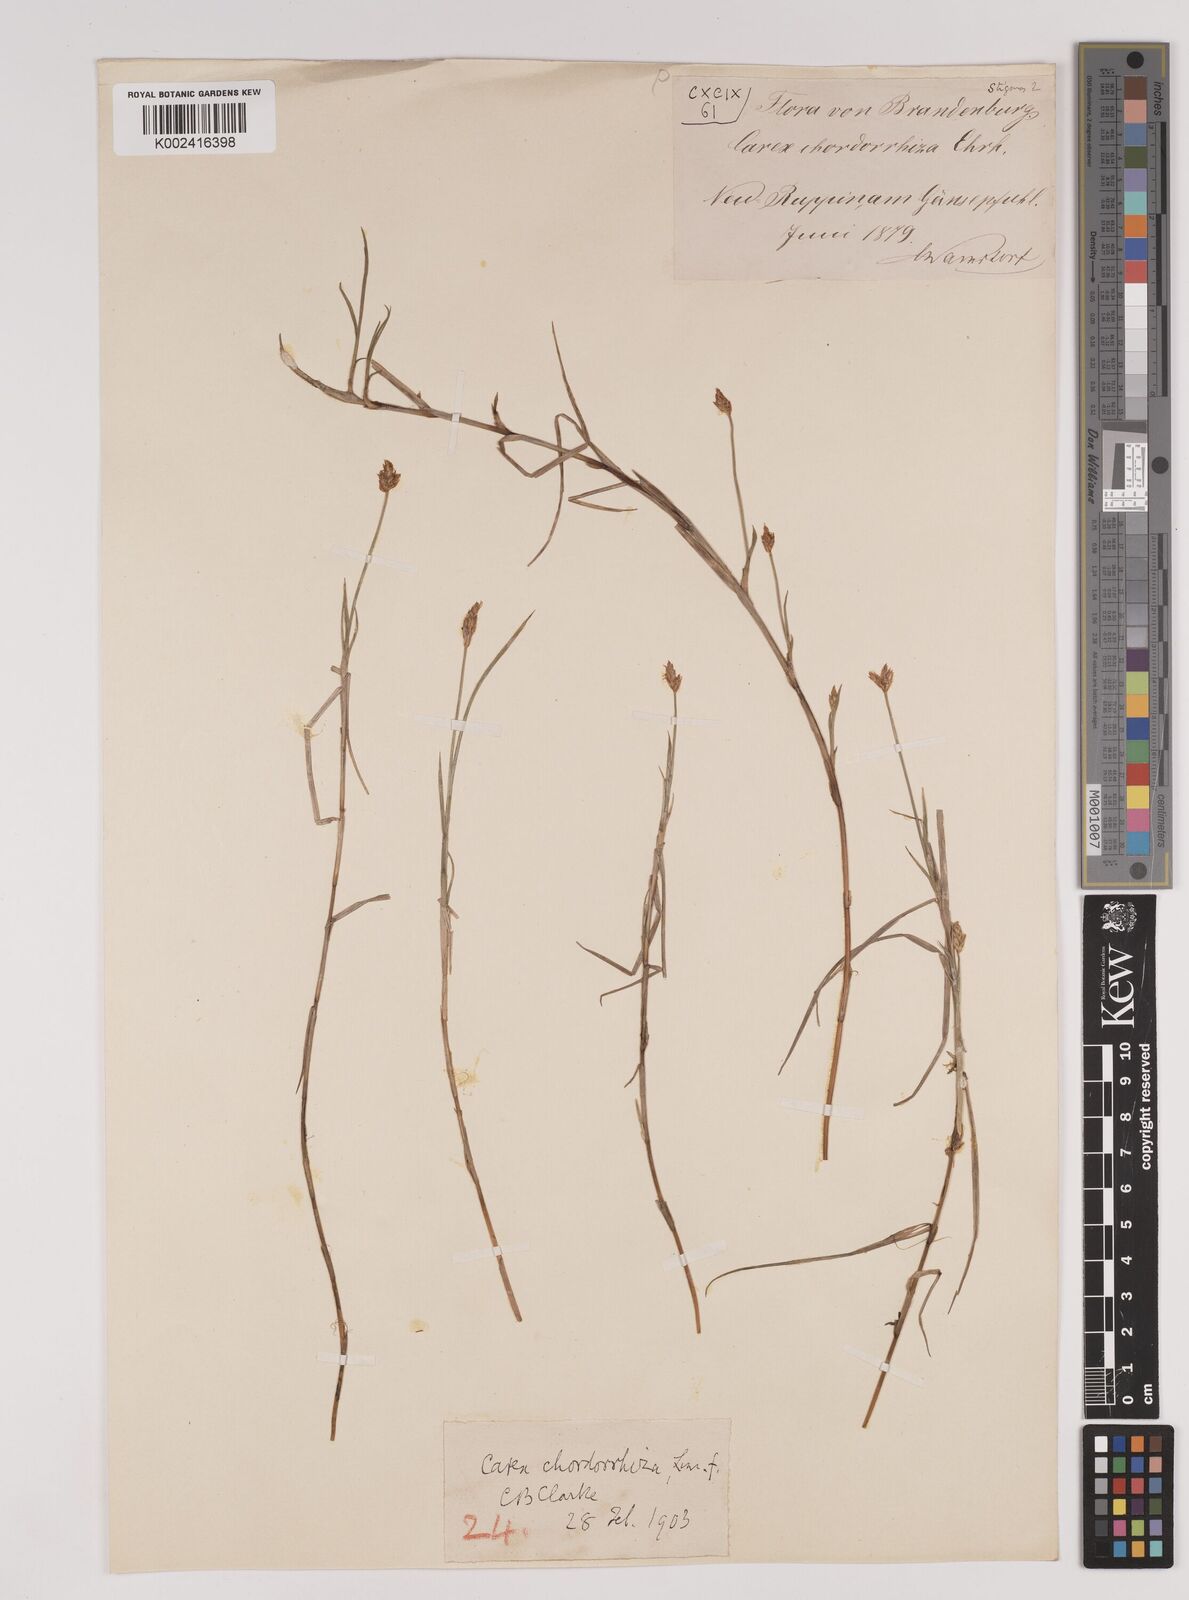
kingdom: Plantae
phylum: Tracheophyta
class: Liliopsida
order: Poales
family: Cyperaceae
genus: Carex
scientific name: Carex chordorrhiza
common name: String sedge
